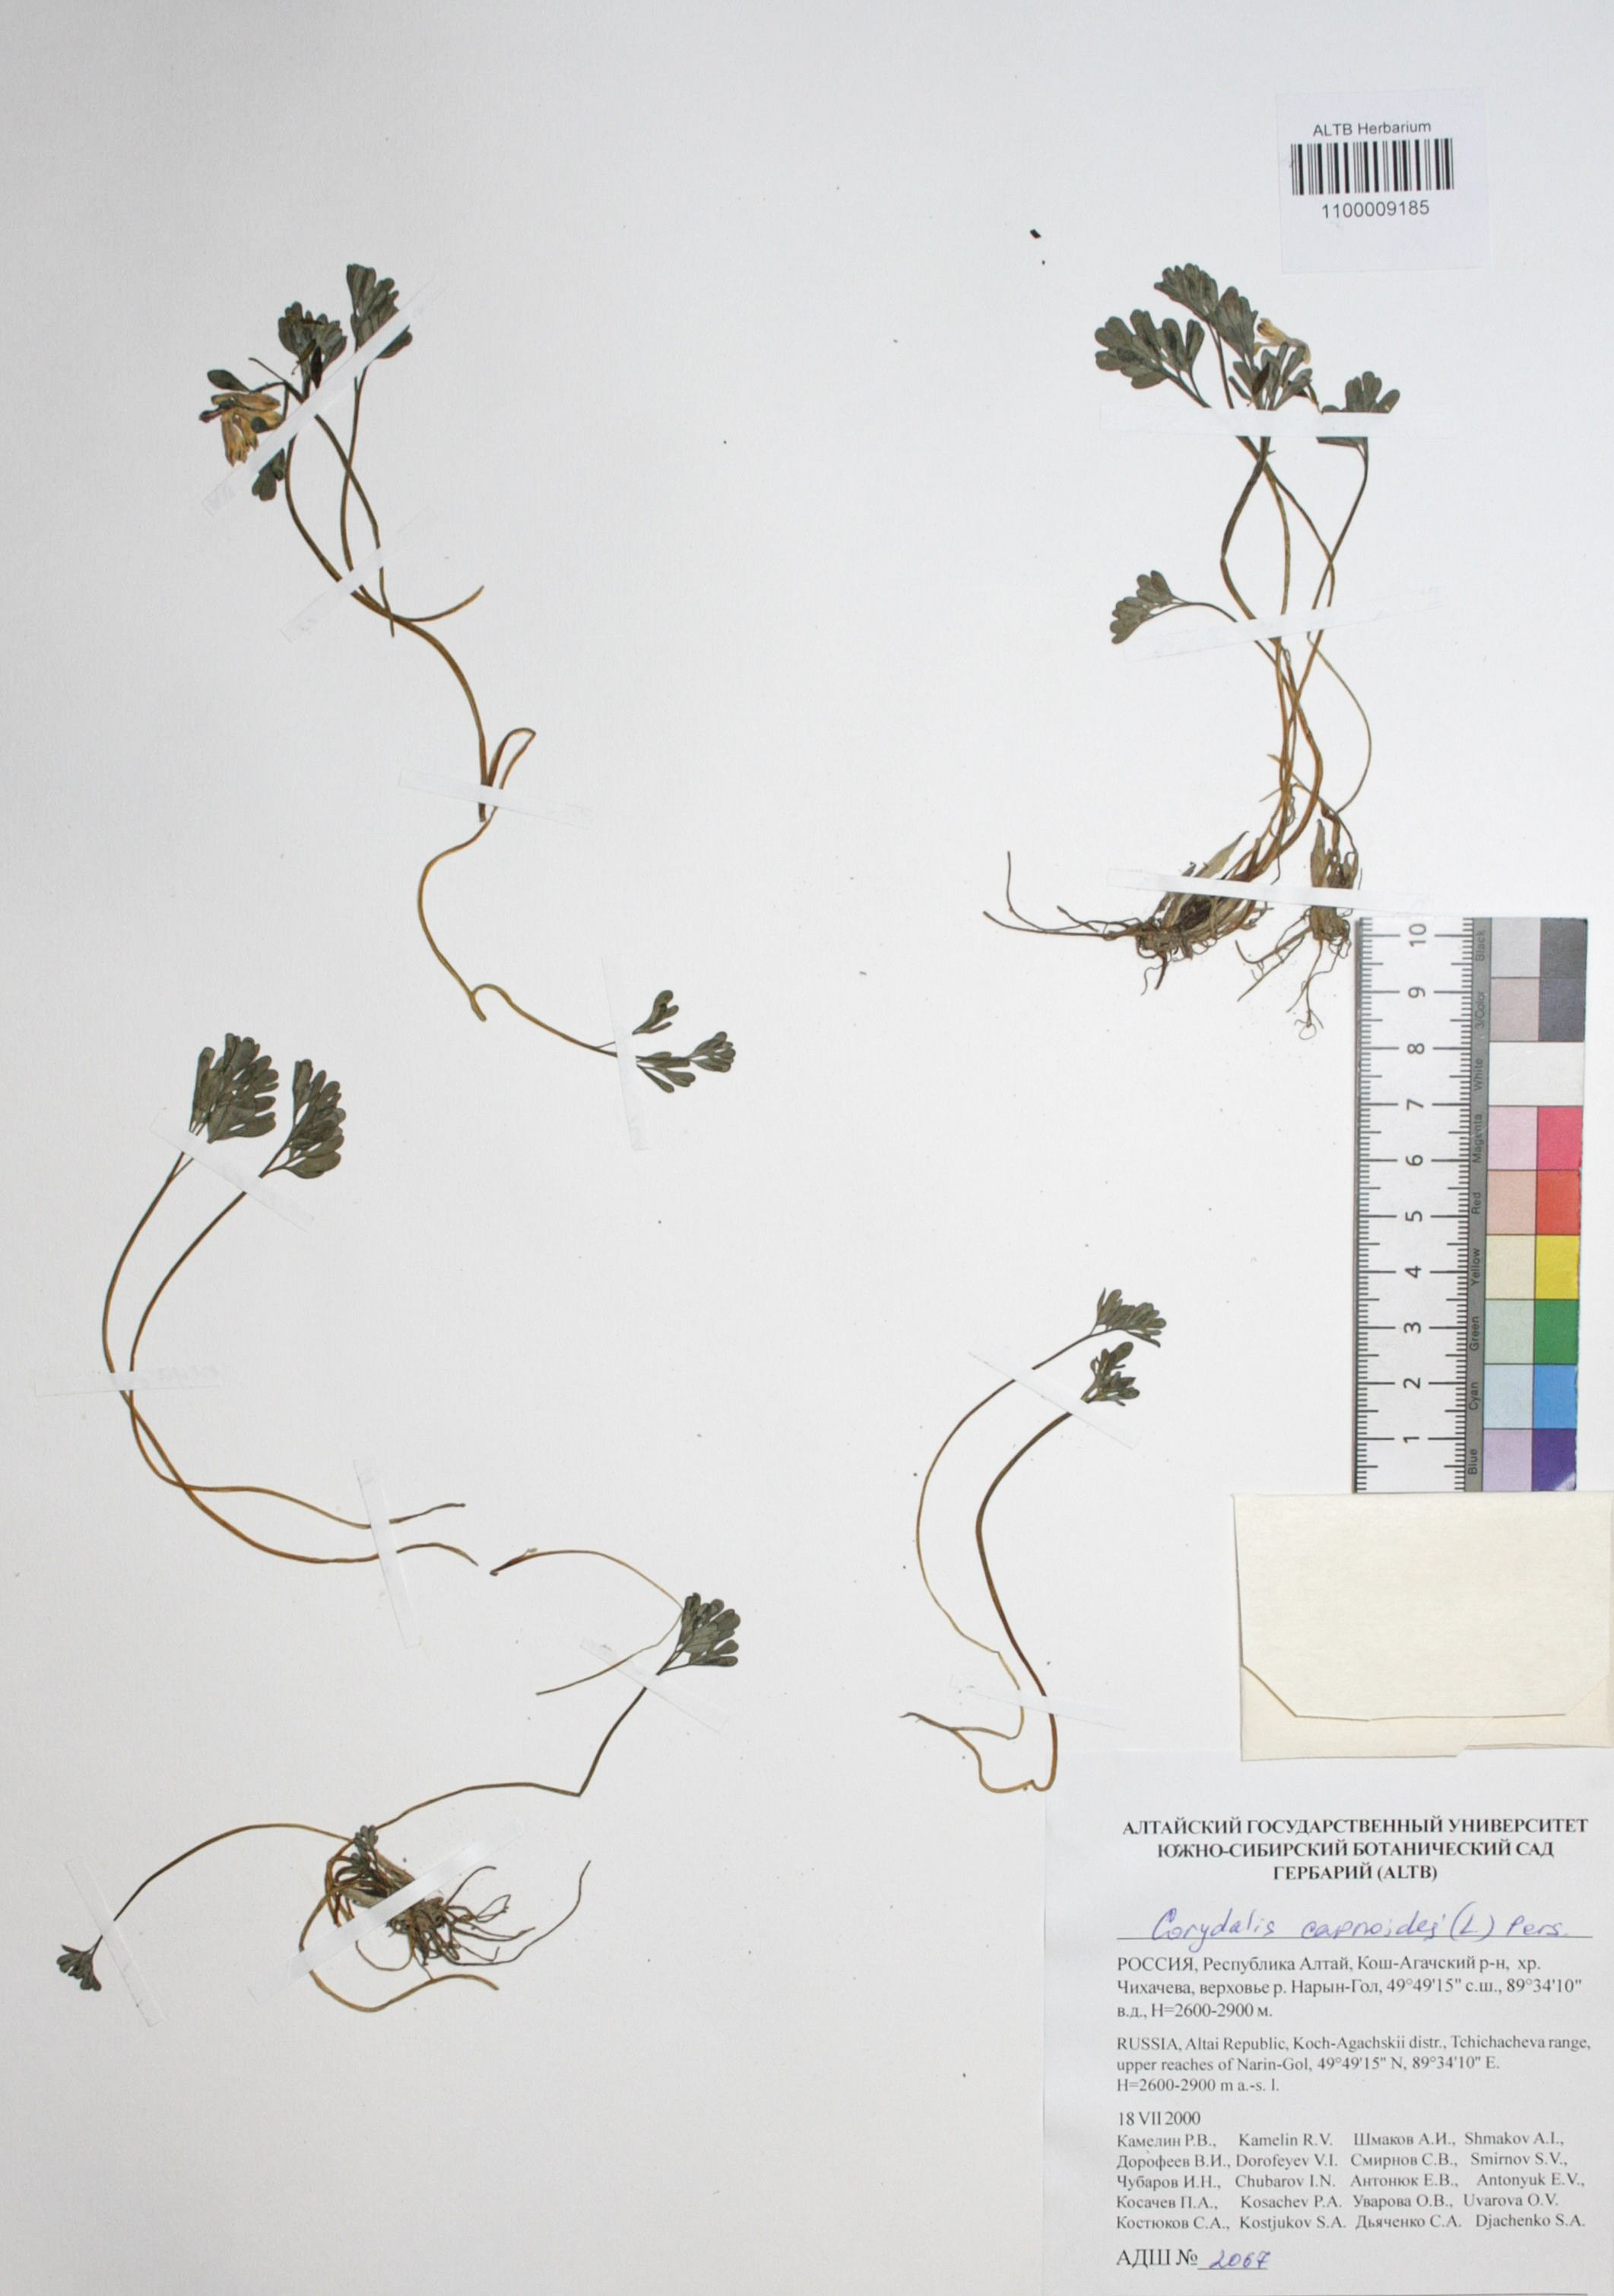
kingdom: Plantae
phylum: Tracheophyta
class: Magnoliopsida
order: Ranunculales
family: Papaveraceae
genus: Corydalis
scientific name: Corydalis capnoides
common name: Beaked corydalis
